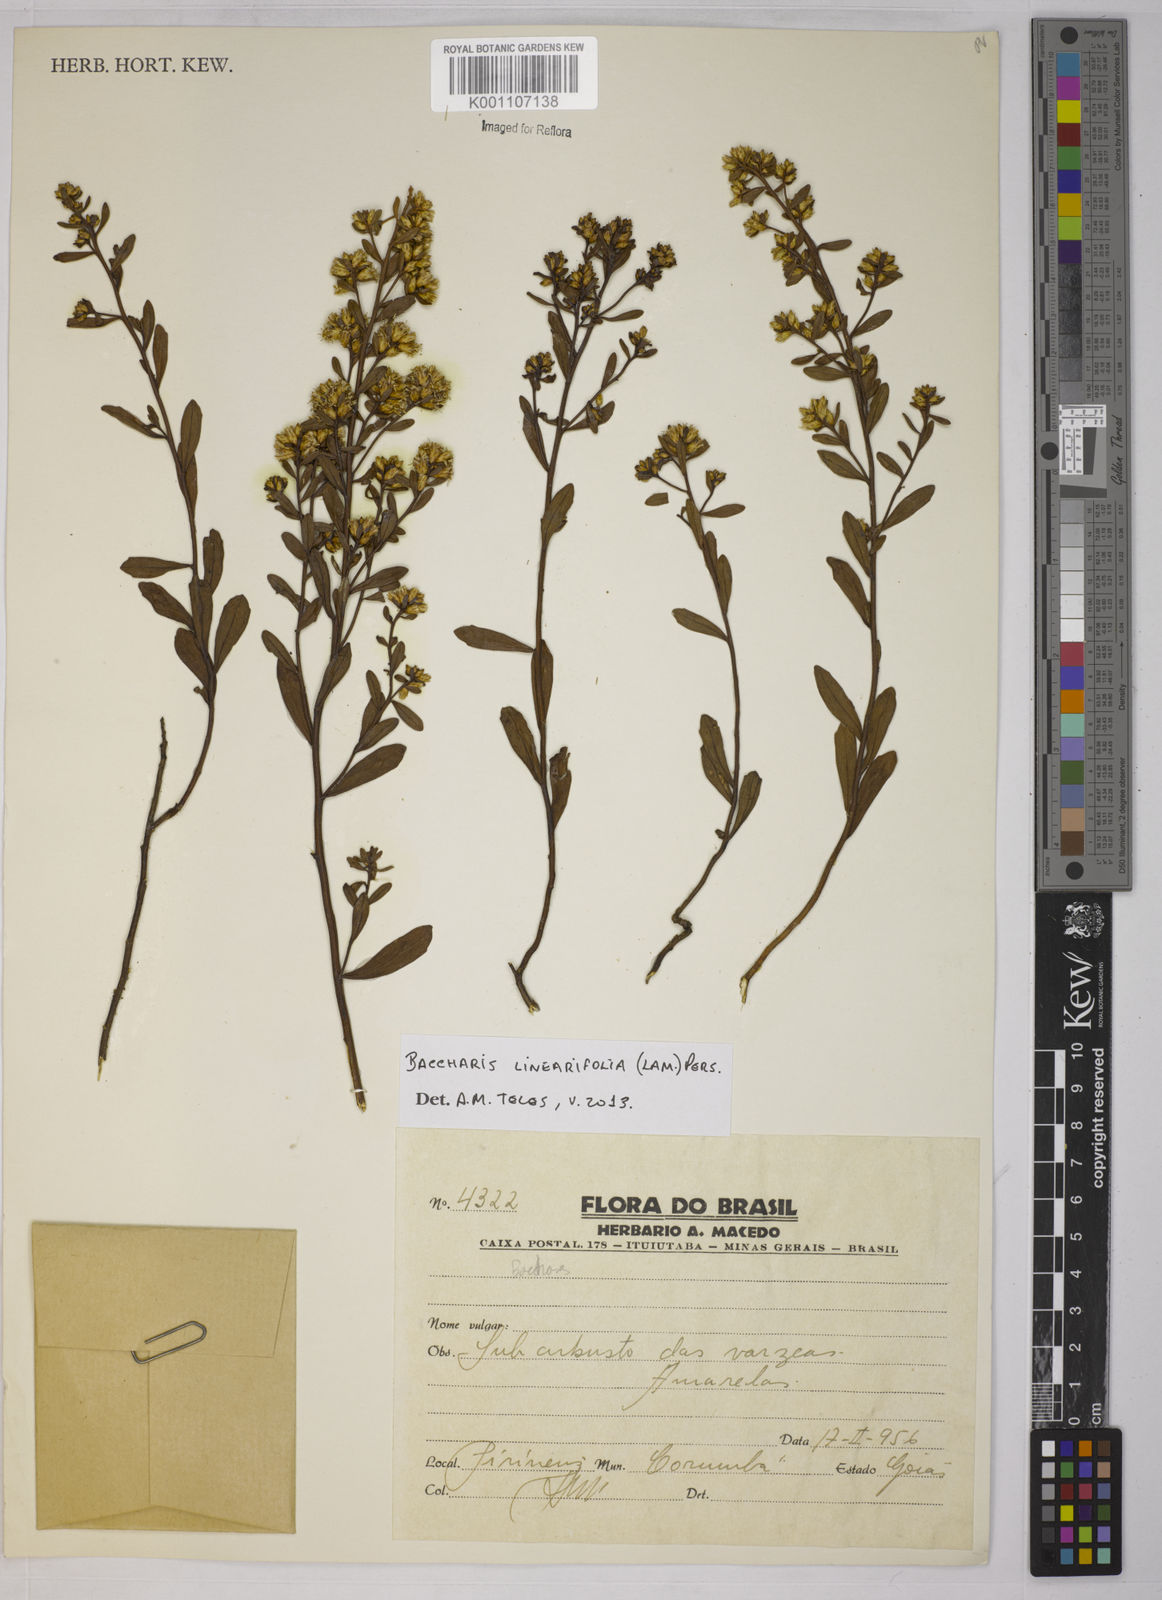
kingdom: Plantae
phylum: Tracheophyta
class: Magnoliopsida
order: Asterales
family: Asteraceae
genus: Baccharis
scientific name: Baccharis linearifolia
